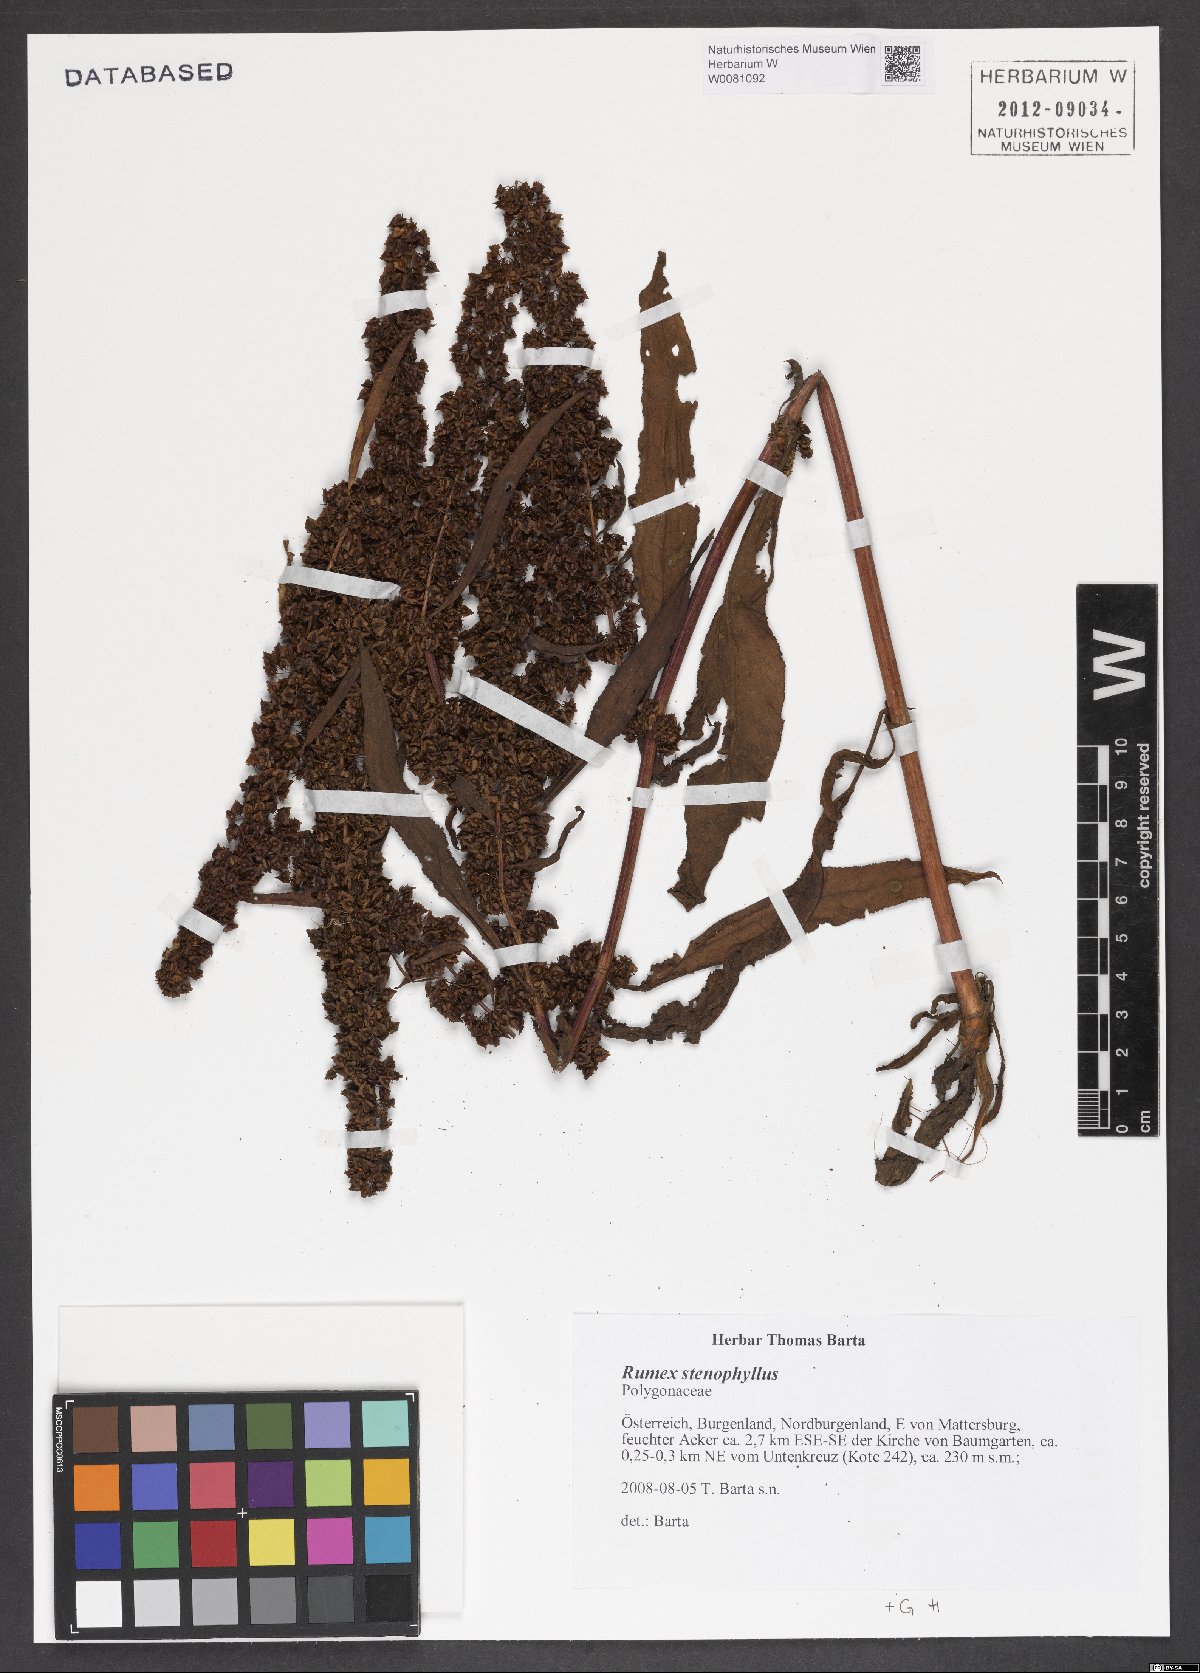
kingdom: Plantae
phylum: Tracheophyta
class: Magnoliopsida
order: Caryophyllales
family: Polygonaceae
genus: Rumex
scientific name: Rumex stenophyllus
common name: Narrowleaf dock
